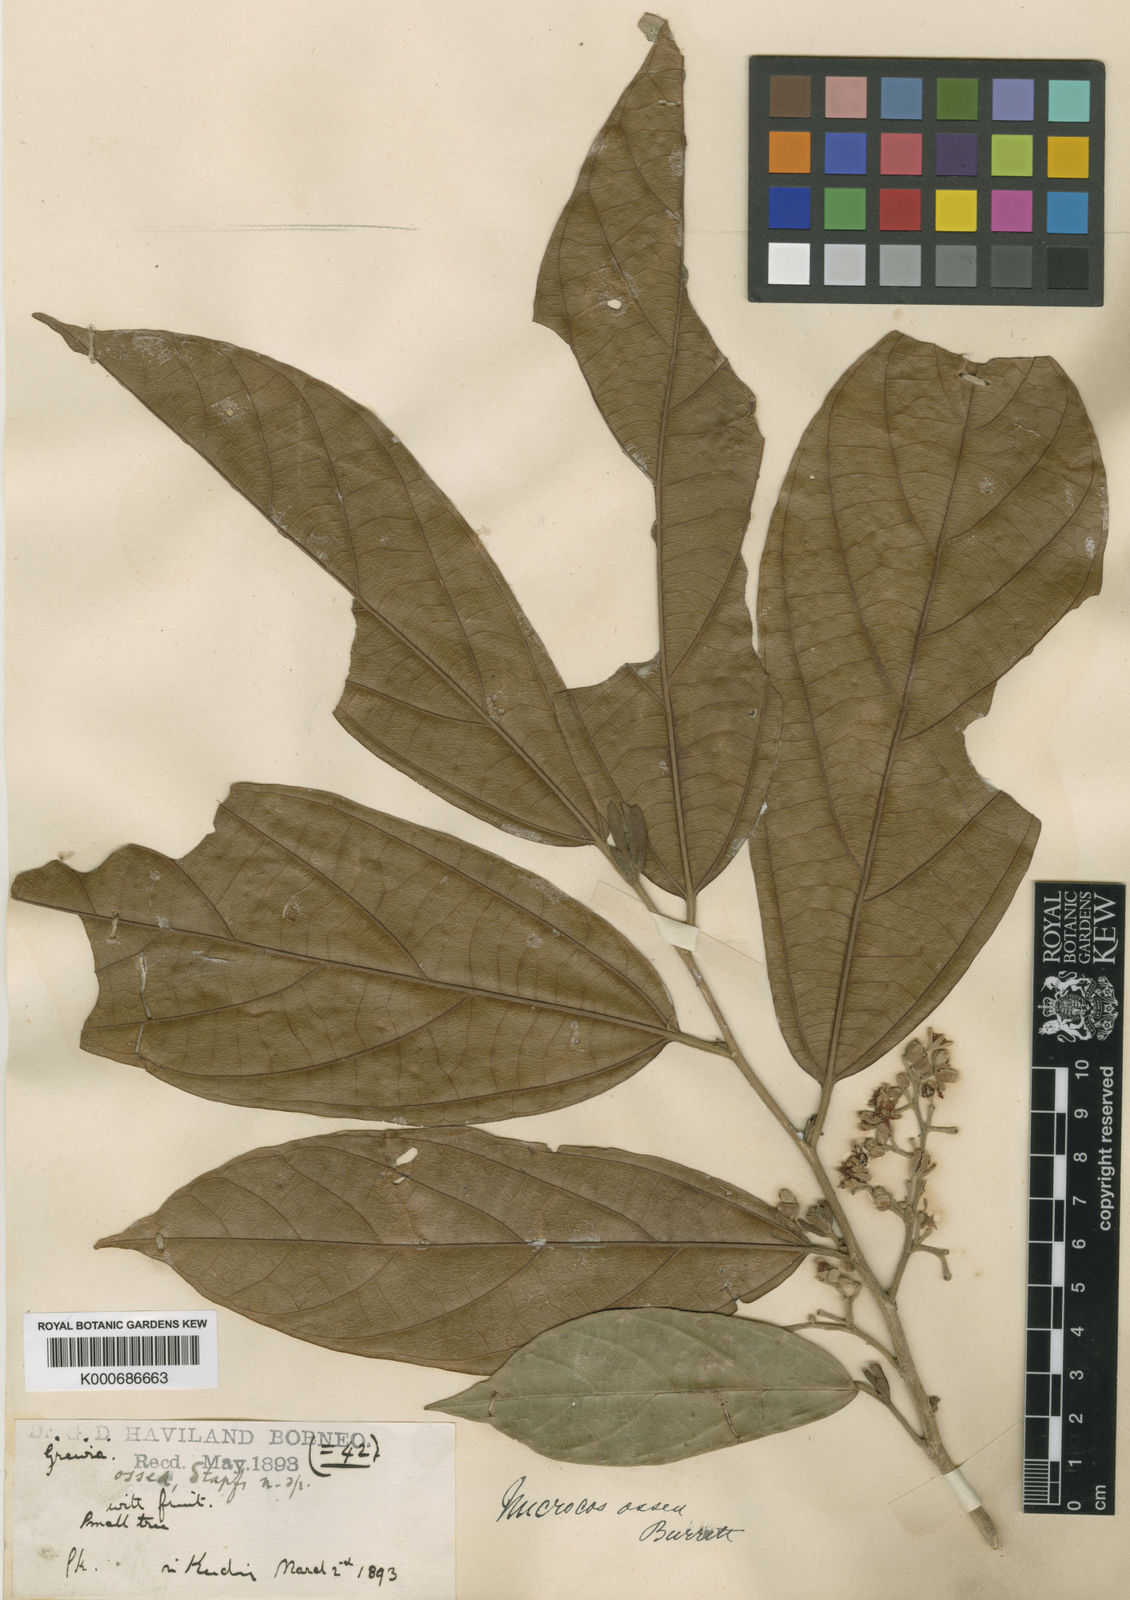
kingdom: Plantae
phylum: Tracheophyta
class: Magnoliopsida
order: Malvales
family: Malvaceae
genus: Microcos
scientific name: Microcos ossea
